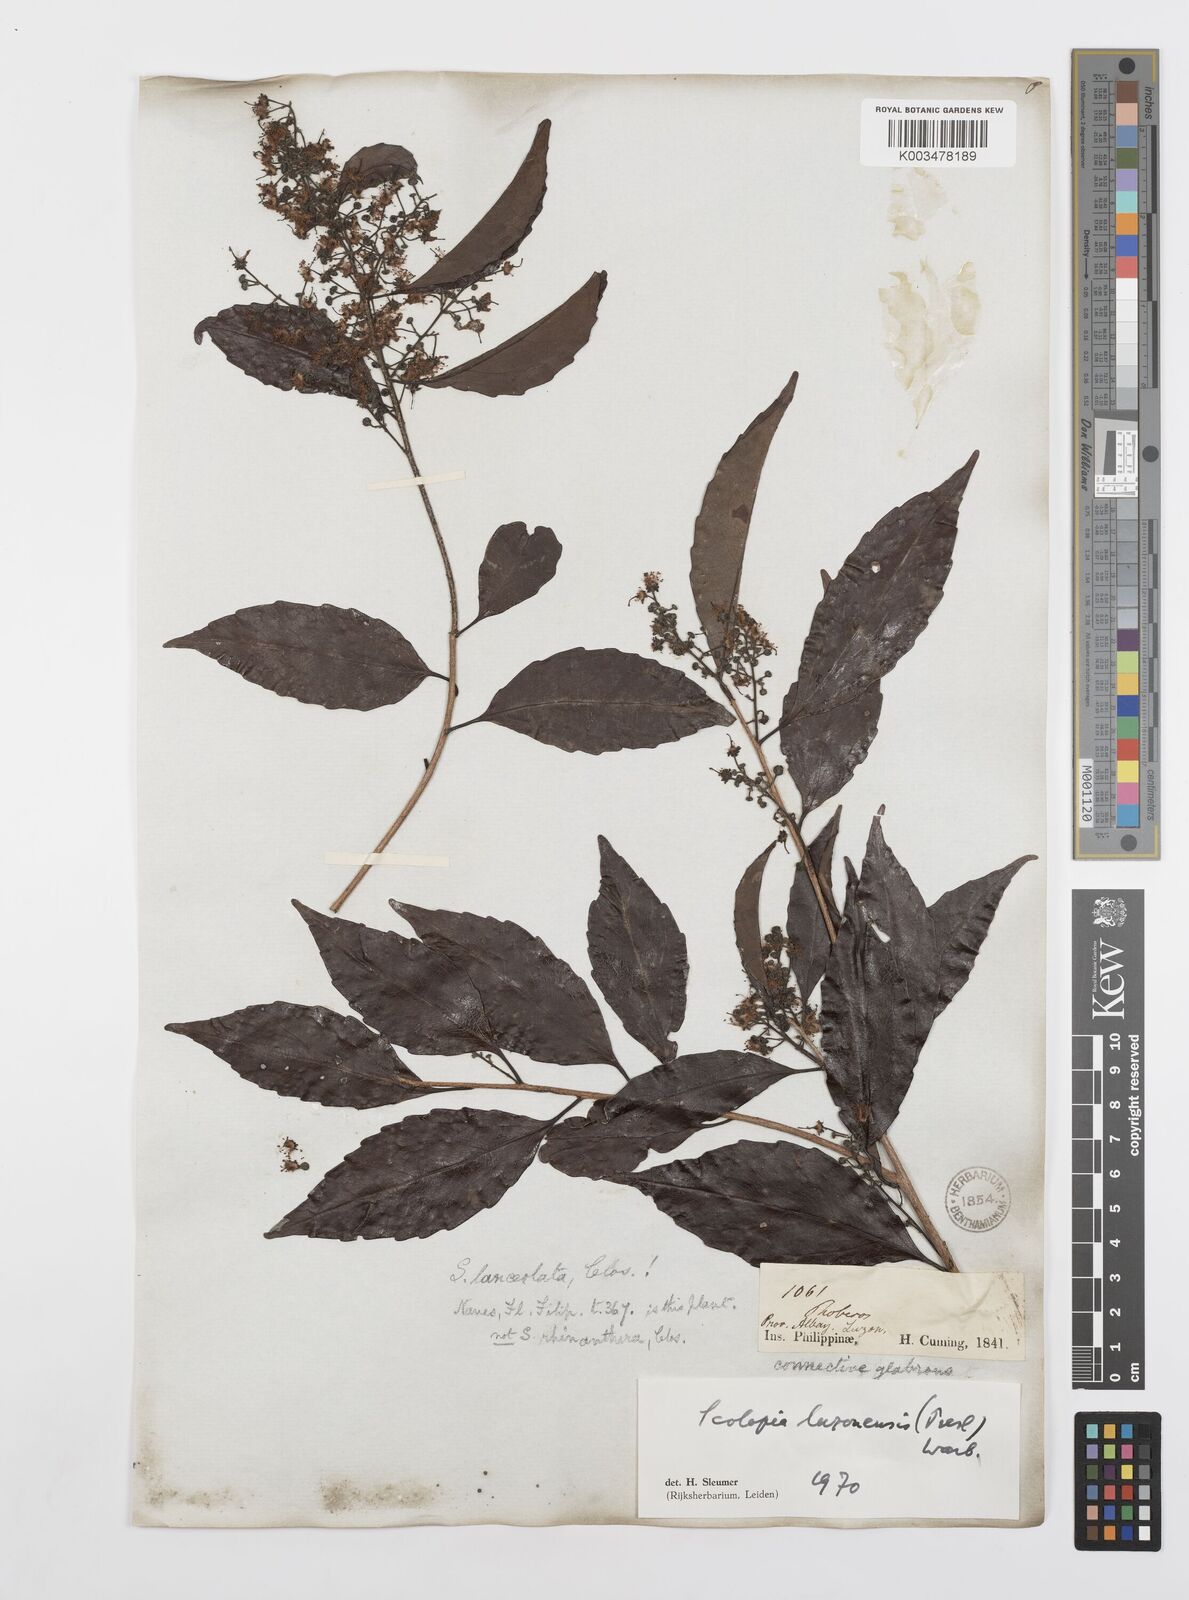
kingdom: Plantae
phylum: Tracheophyta
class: Magnoliopsida
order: Malpighiales
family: Salicaceae
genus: Scolopia
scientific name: Scolopia luzonensis
